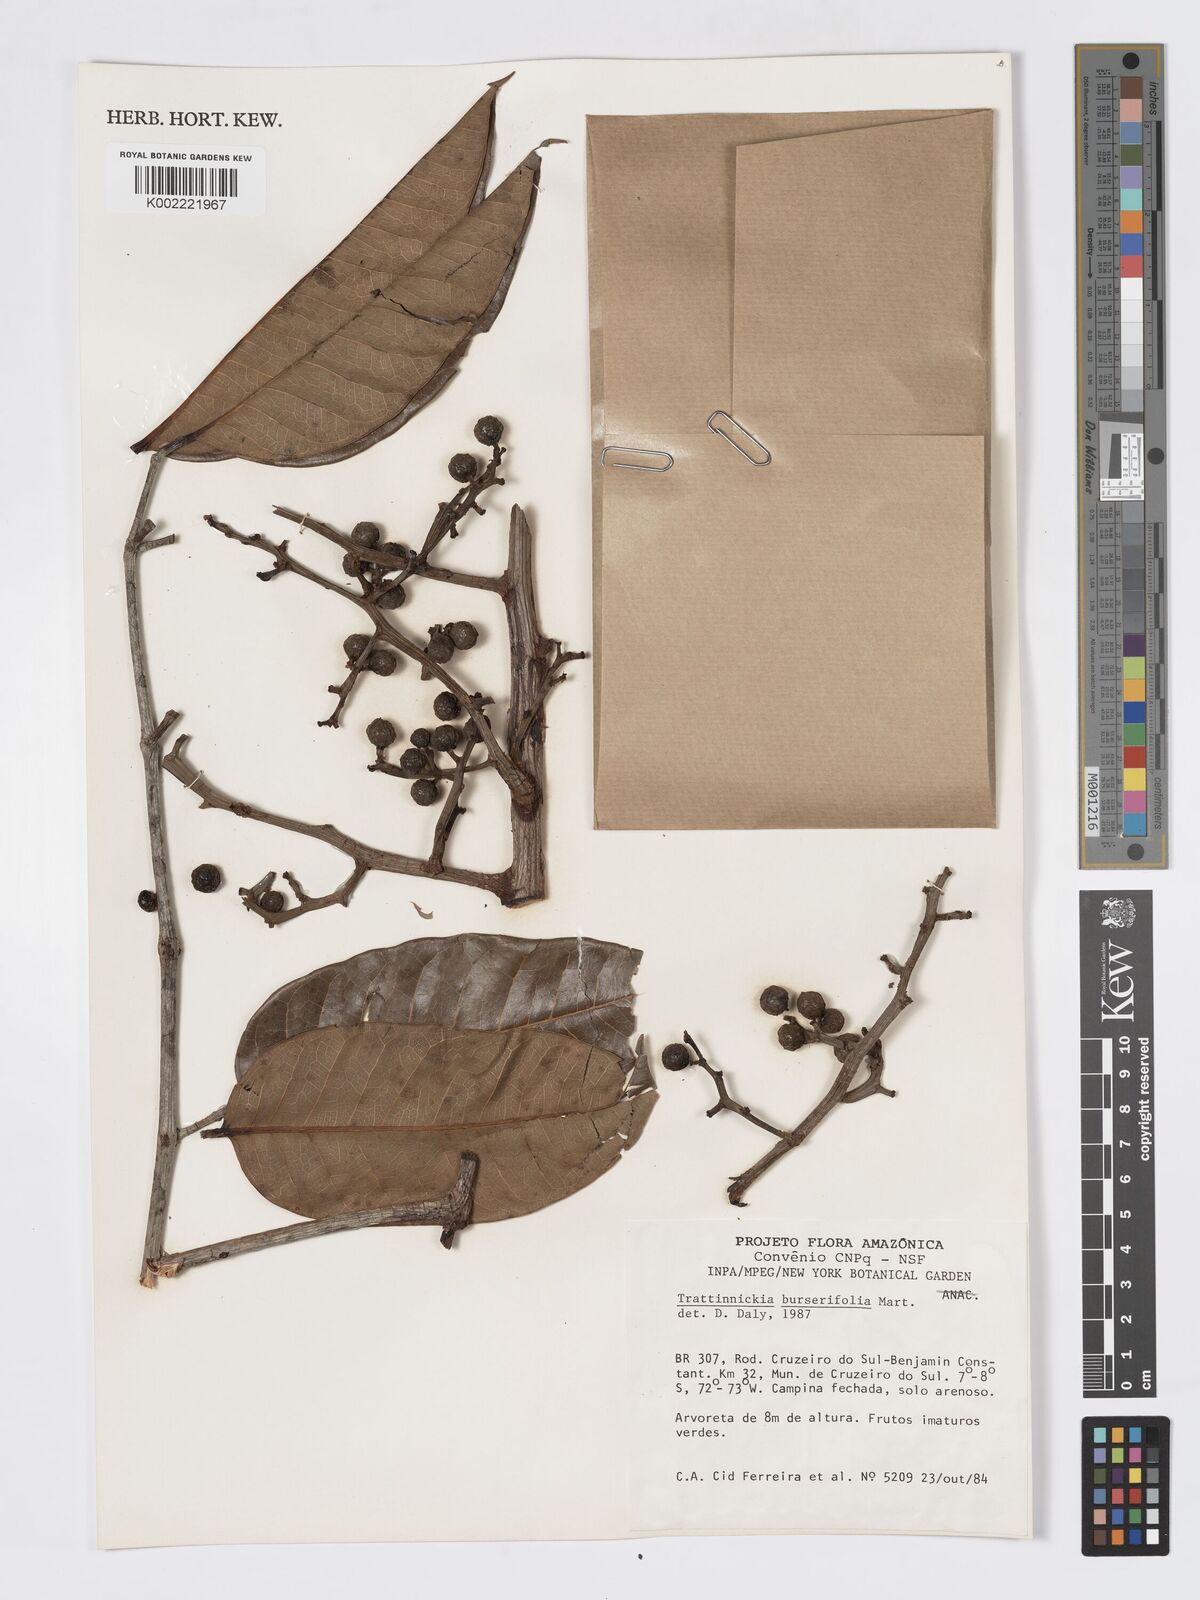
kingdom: Plantae
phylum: Tracheophyta
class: Magnoliopsida
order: Sapindales
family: Burseraceae
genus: Trattinnickia
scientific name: Trattinnickia burserifolia
